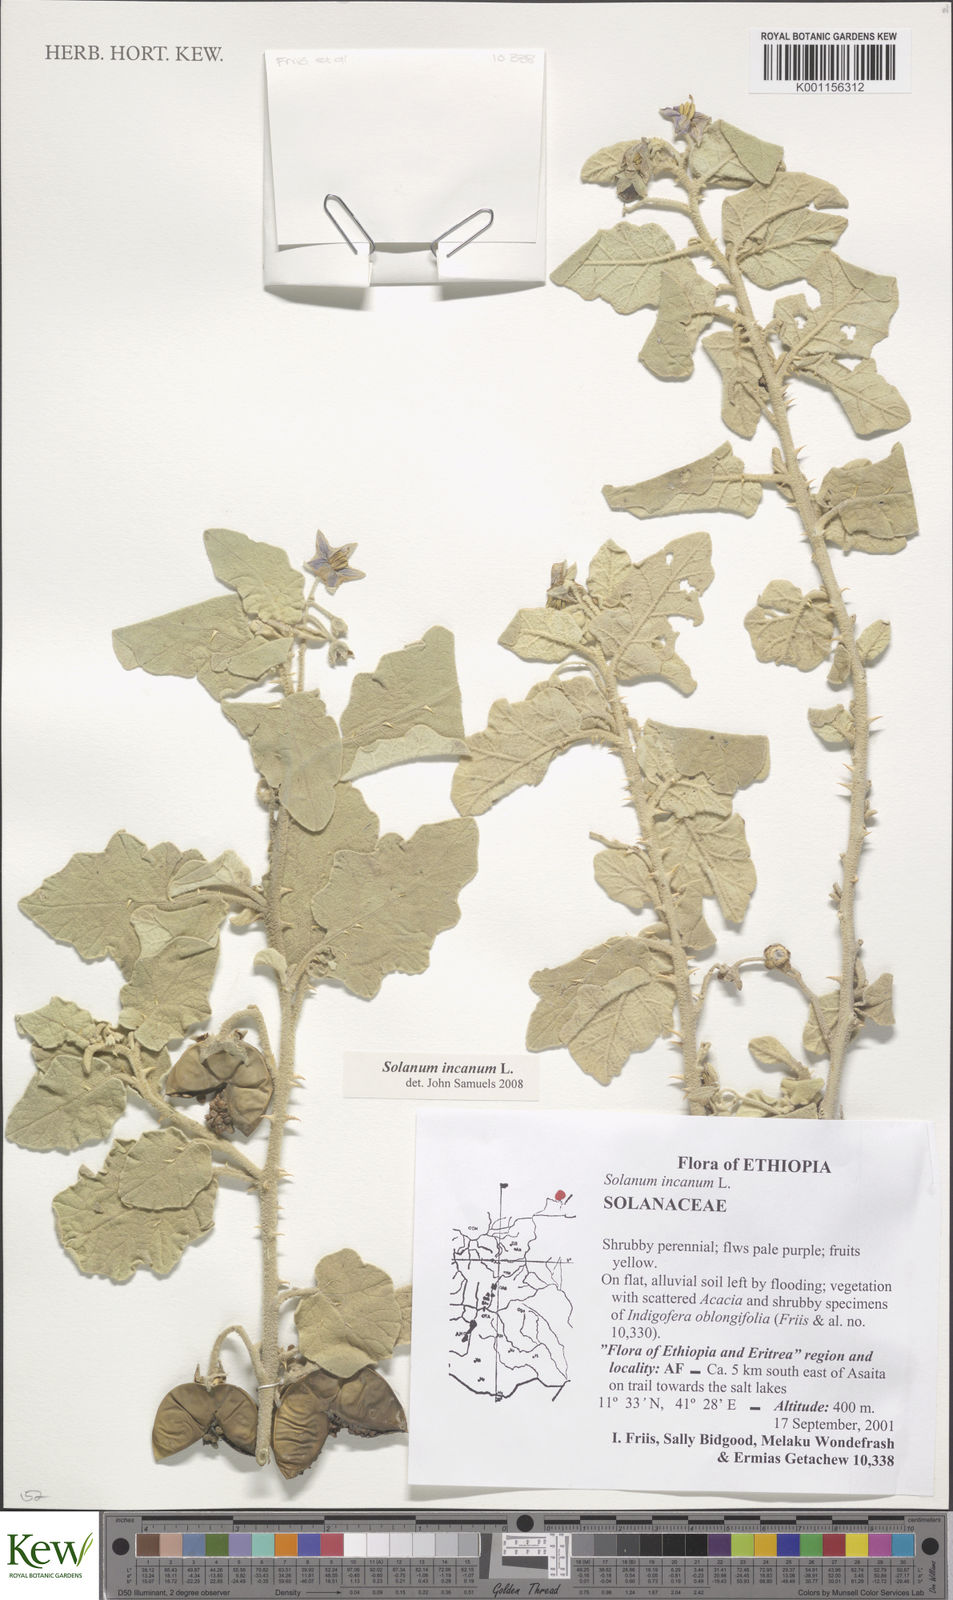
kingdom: Plantae
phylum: Tracheophyta
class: Magnoliopsida
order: Solanales
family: Solanaceae
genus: Solanum
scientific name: Solanum incanum
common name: Bitter apple
